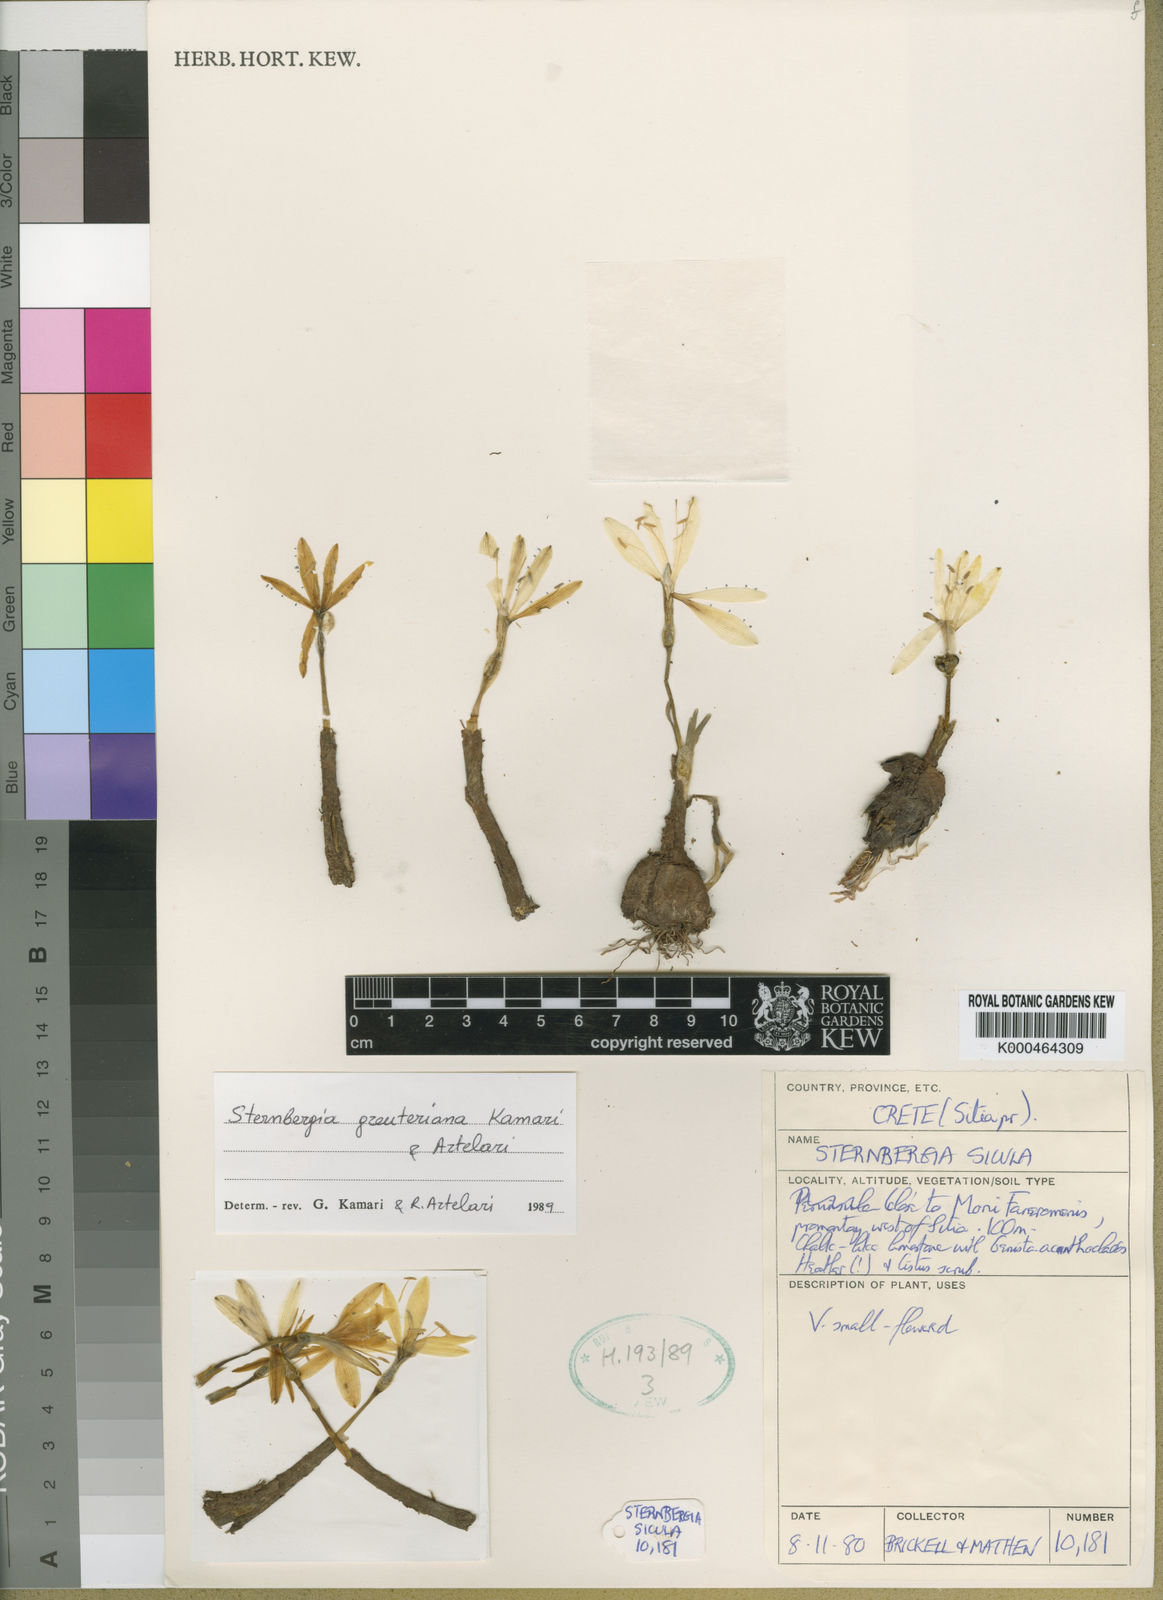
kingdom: Plantae
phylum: Tracheophyta
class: Liliopsida
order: Asparagales
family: Amaryllidaceae
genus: Sternbergia
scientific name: Sternbergia lutea
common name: Winter daffodil
